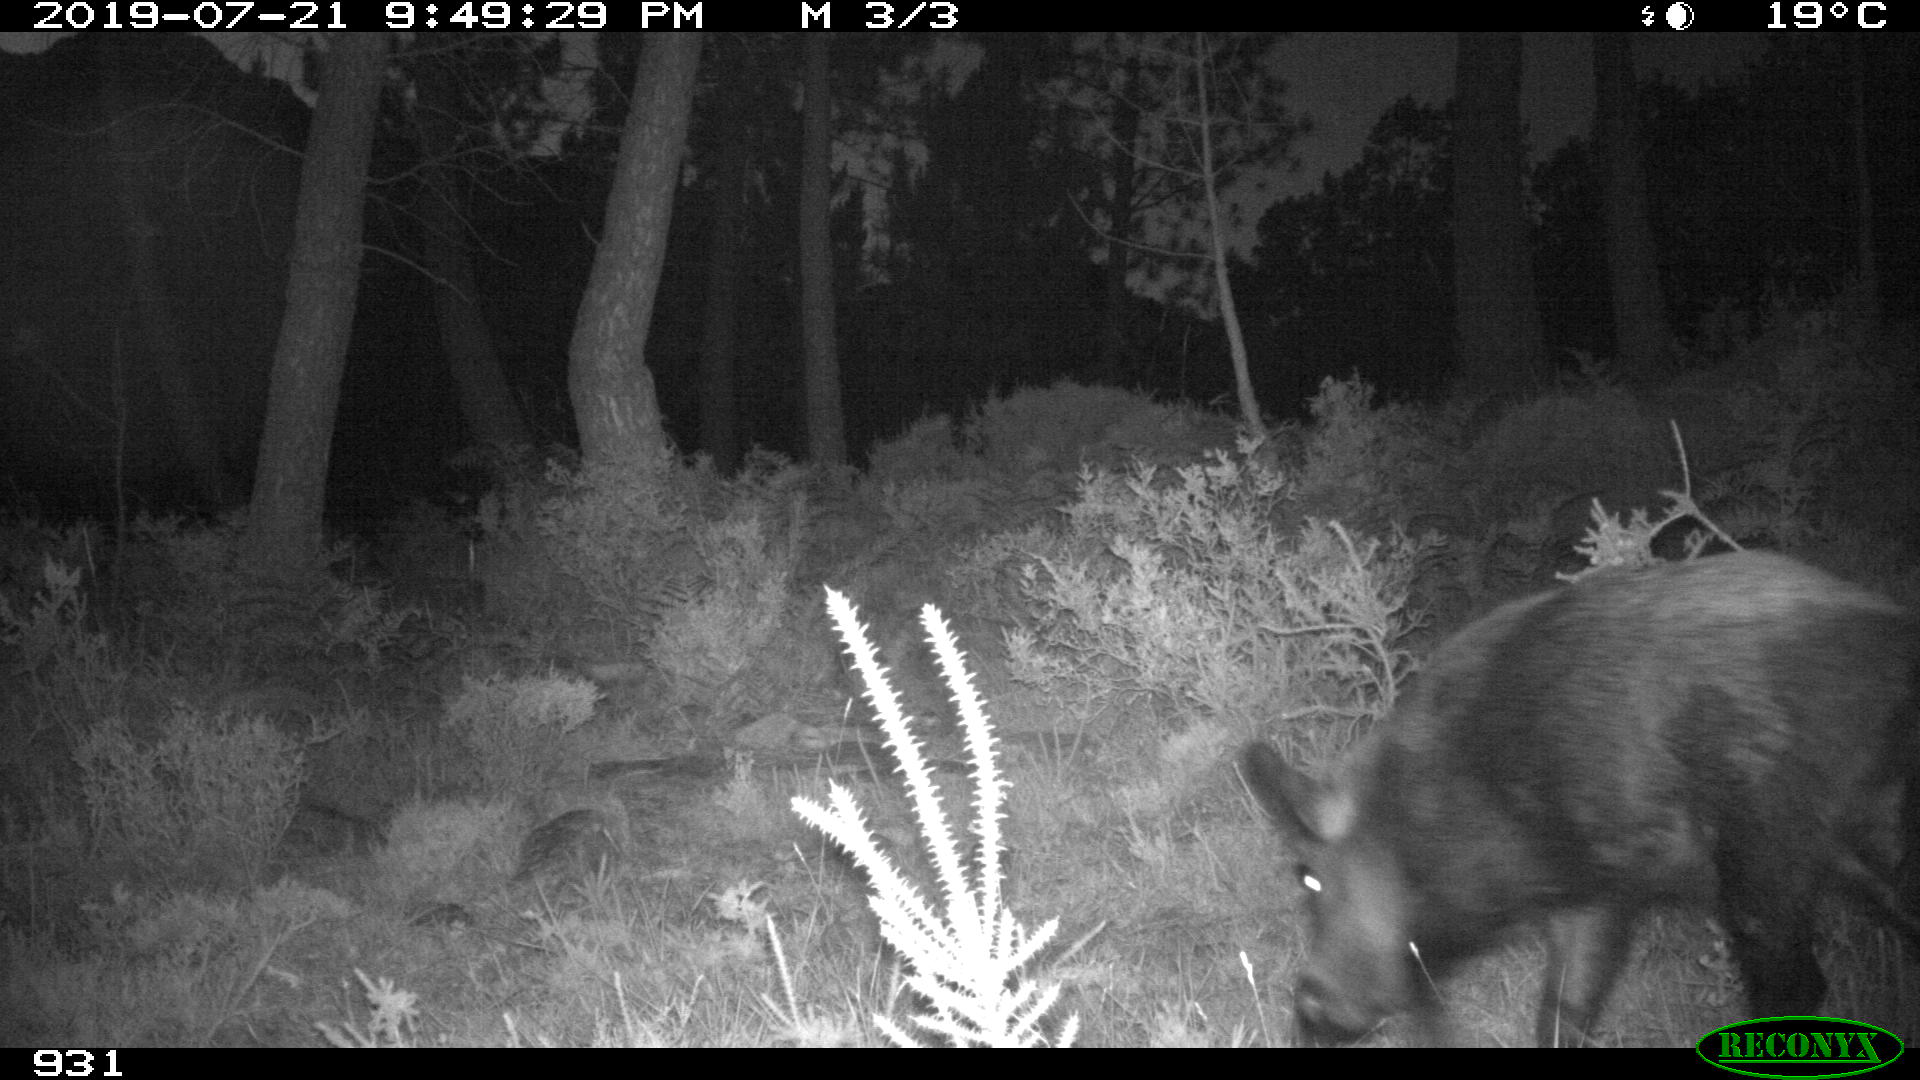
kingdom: Animalia
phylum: Chordata
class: Mammalia
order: Artiodactyla
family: Suidae
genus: Sus
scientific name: Sus scrofa
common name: Wild boar
